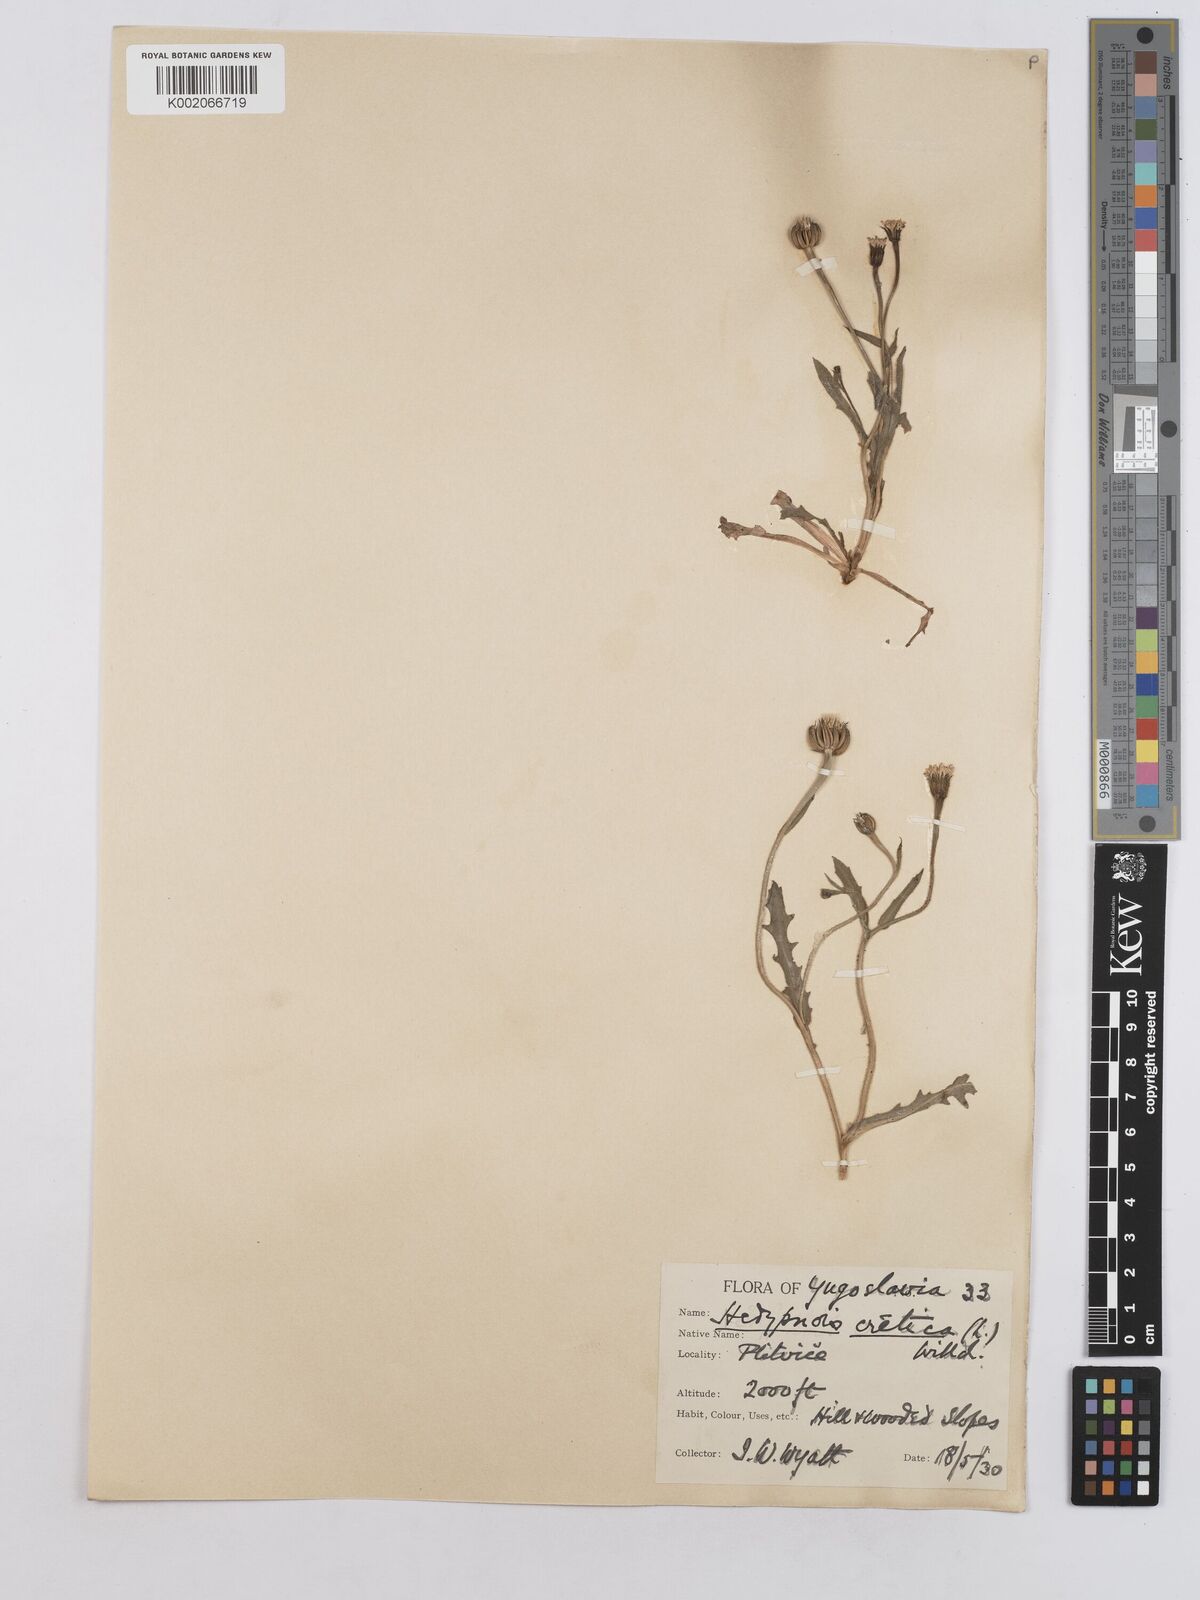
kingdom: Plantae
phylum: Tracheophyta
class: Magnoliopsida
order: Asterales
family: Asteraceae
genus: Hedypnois
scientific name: Hedypnois cretica
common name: Scaly hawkbit
